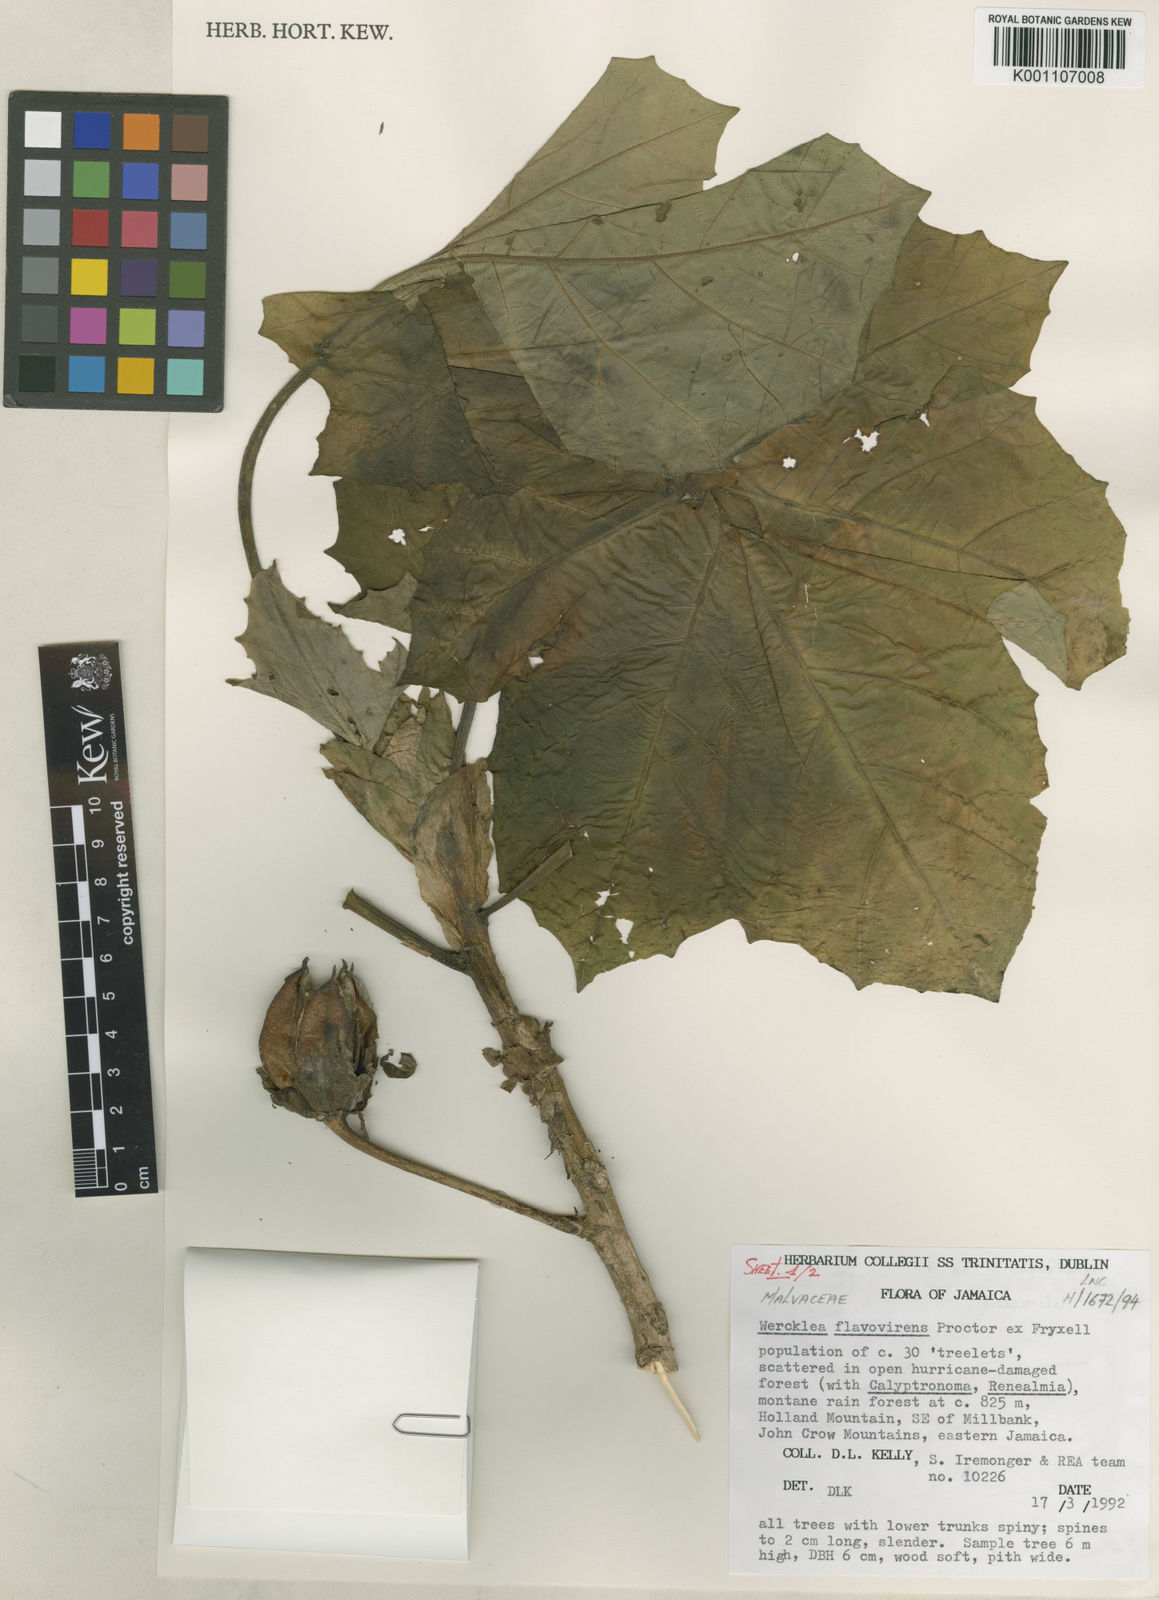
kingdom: Plantae
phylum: Tracheophyta
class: Magnoliopsida
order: Malvales
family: Malvaceae
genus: Wercklea
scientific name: Wercklea flavovirens
